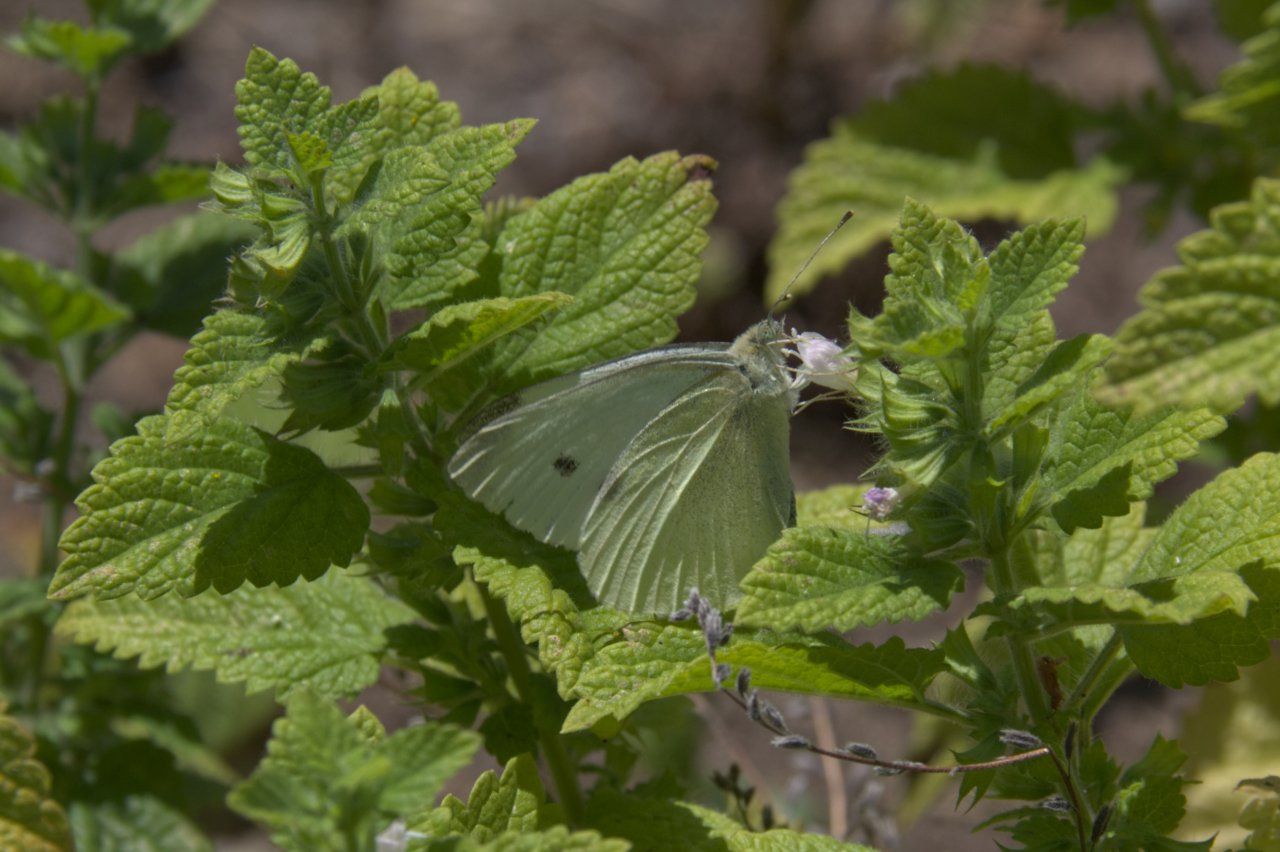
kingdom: Animalia
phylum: Arthropoda
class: Insecta
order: Lepidoptera
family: Pieridae
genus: Pieris
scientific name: Pieris rapae
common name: Cabbage White
